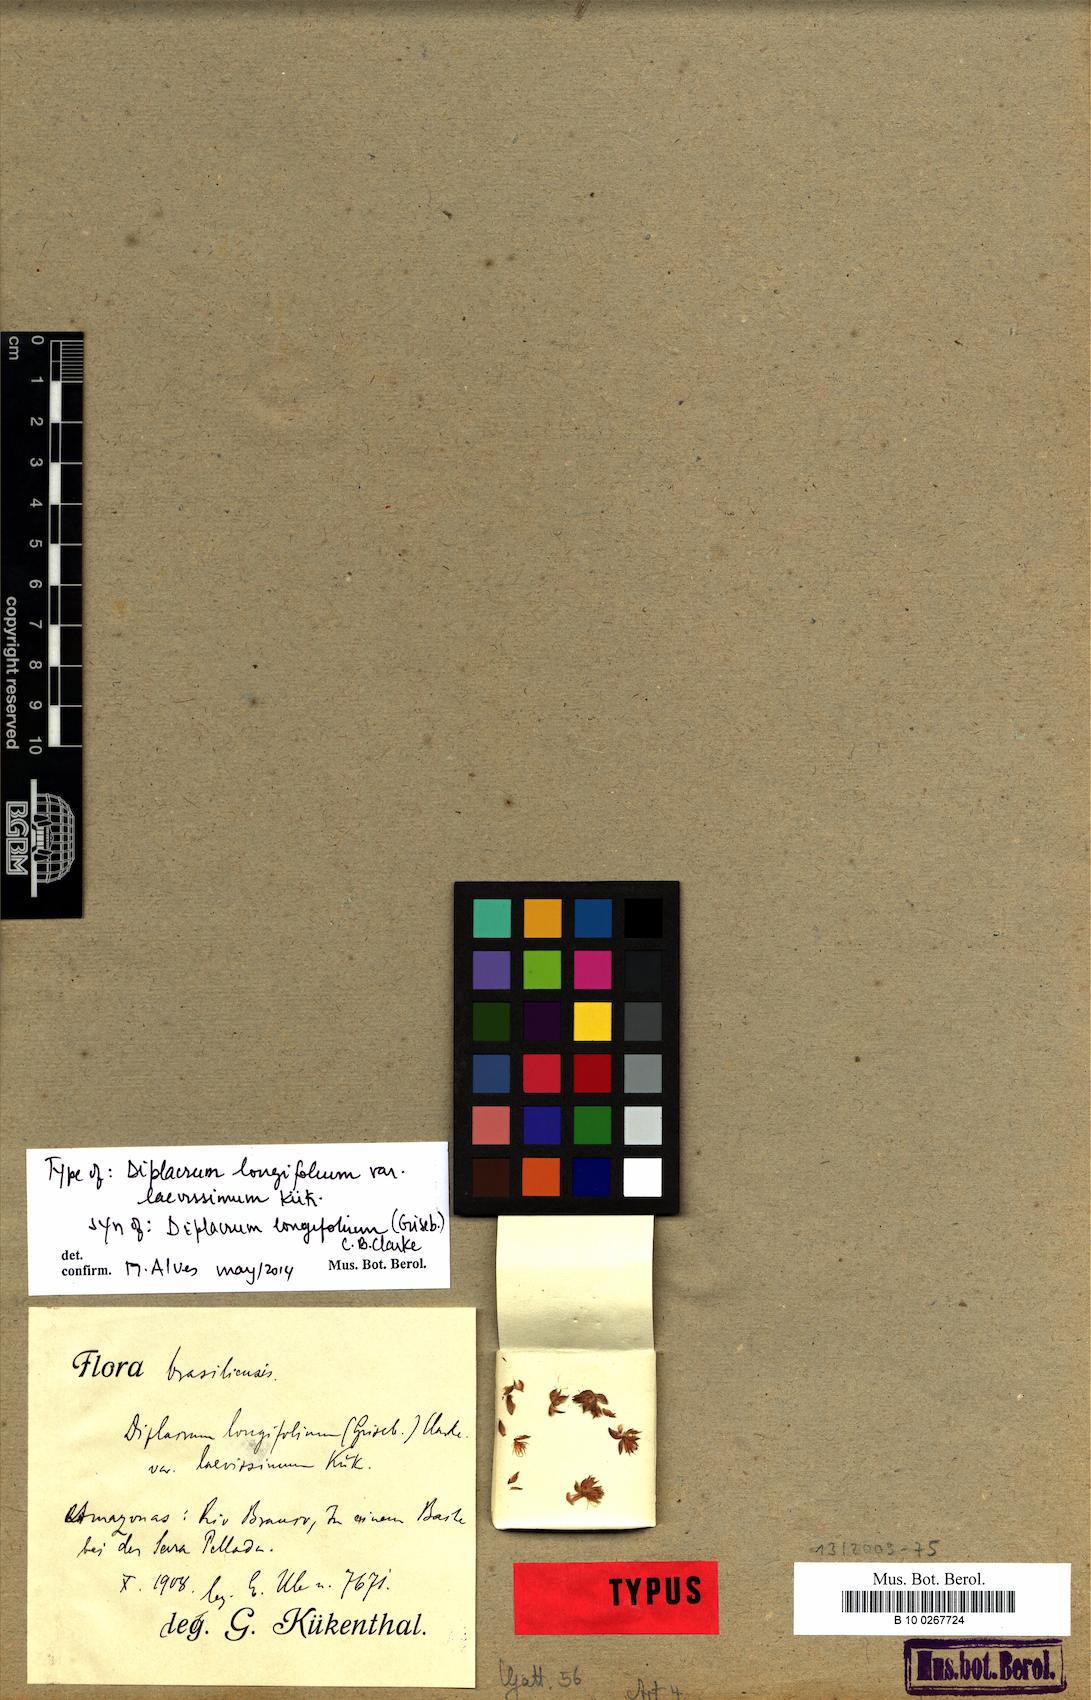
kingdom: Plantae
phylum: Tracheophyta
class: Liliopsida
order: Poales
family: Cyperaceae
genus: Diplacrum
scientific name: Diplacrum guianense
